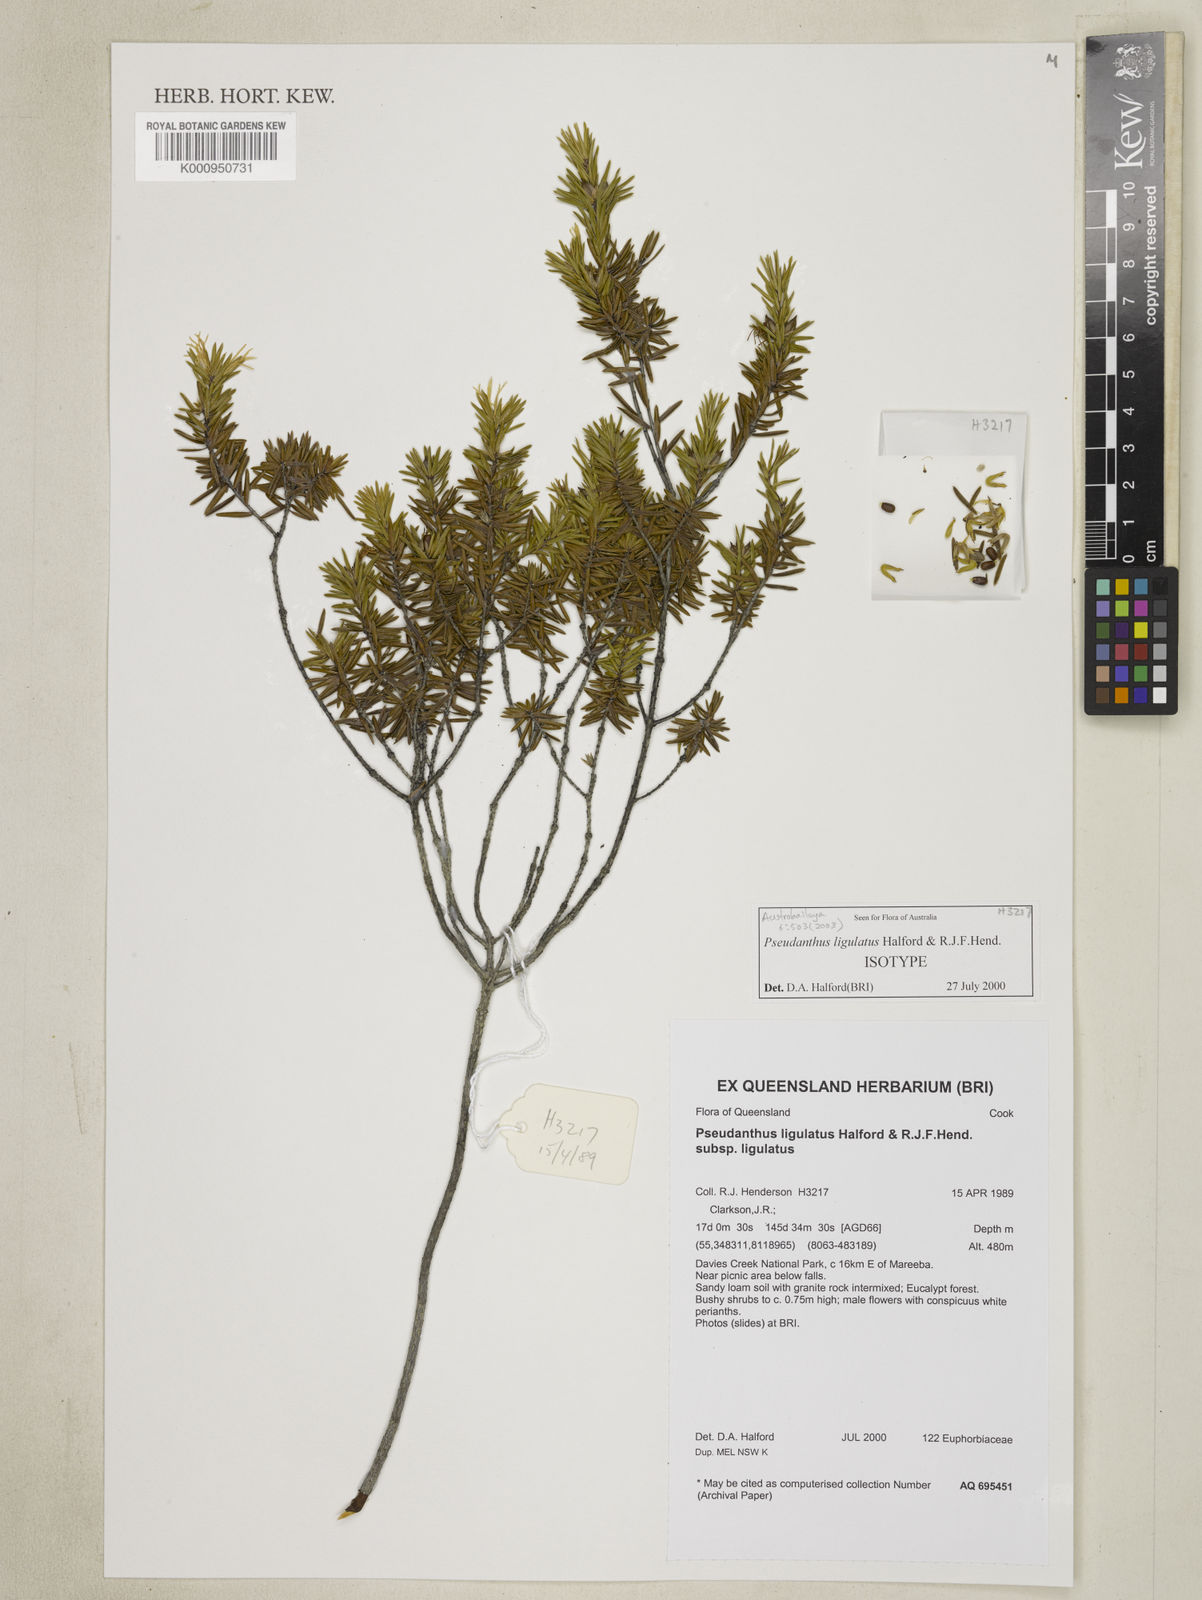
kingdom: Plantae
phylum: Tracheophyta
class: Magnoliopsida
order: Malpighiales
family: Picrodendraceae
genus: Pseudanthus
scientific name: Pseudanthus ligulatus
